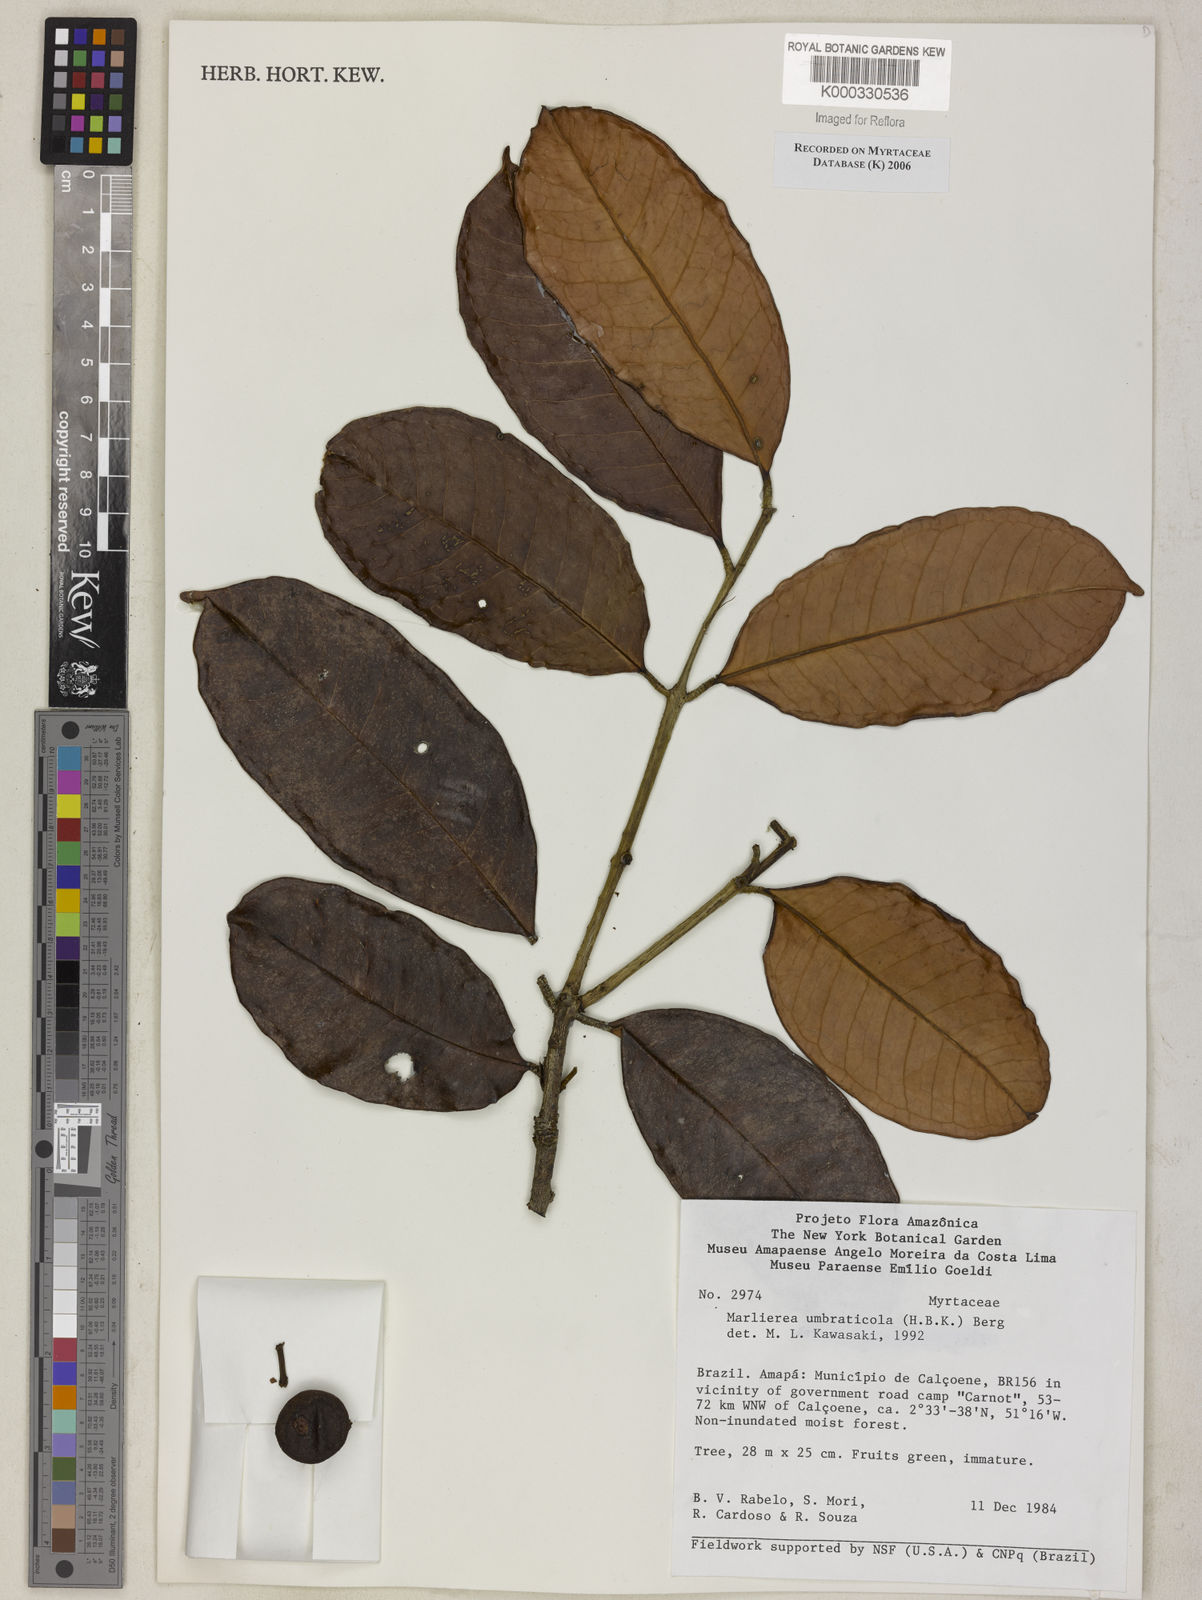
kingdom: Plantae
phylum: Tracheophyta
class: Magnoliopsida
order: Myrtales
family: Myrtaceae
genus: Myrcia
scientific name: Myrcia umbraticola
